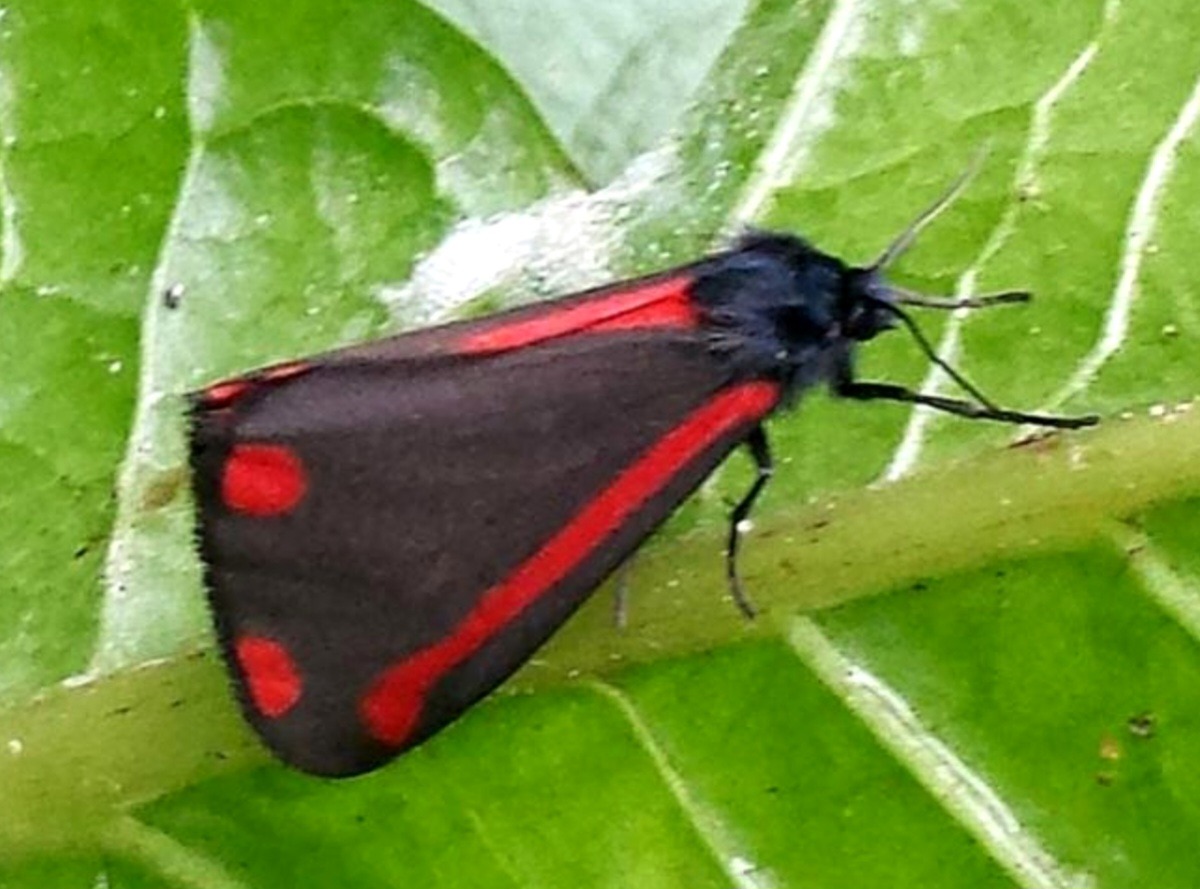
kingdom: Animalia
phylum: Arthropoda
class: Insecta
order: Lepidoptera
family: Erebidae
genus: Tyria
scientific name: Tyria jacobaeae
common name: Blodplet
